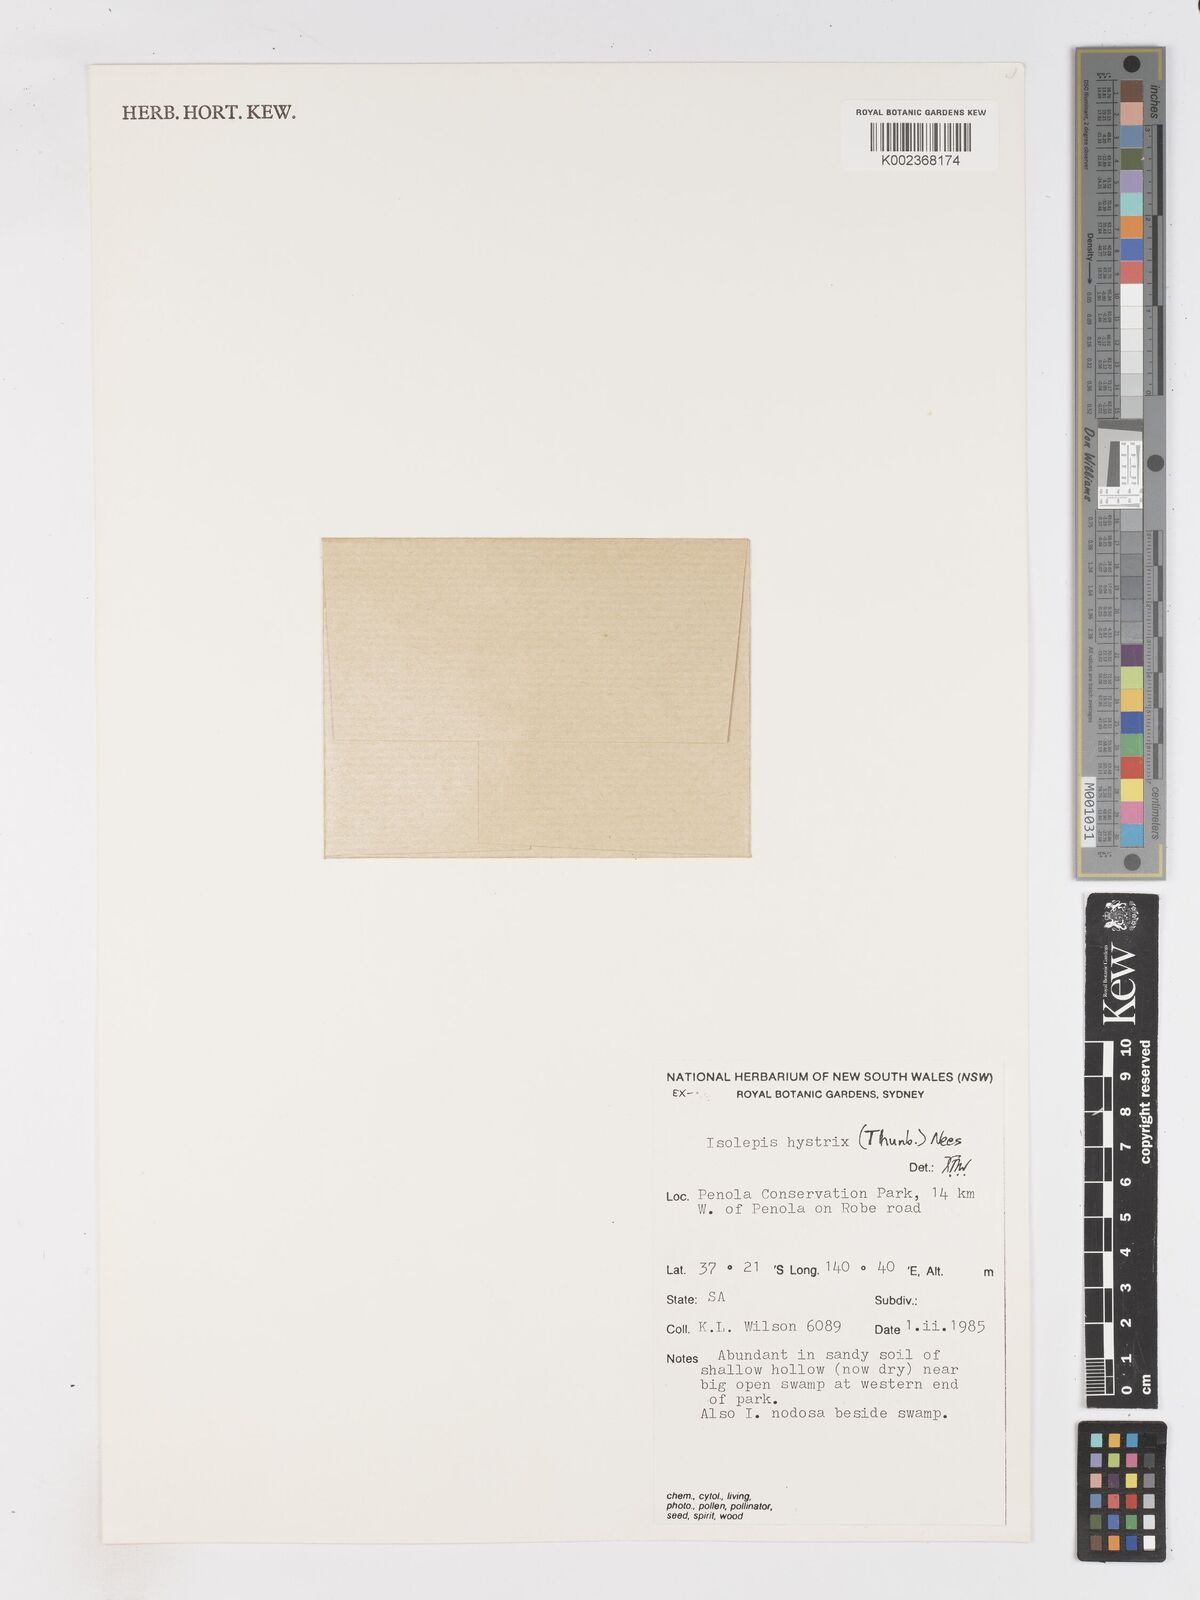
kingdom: Plantae
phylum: Tracheophyta
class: Liliopsida
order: Poales
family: Cyperaceae
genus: Isolepis
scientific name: Isolepis hystrix
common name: Bottlebrush bulrush
